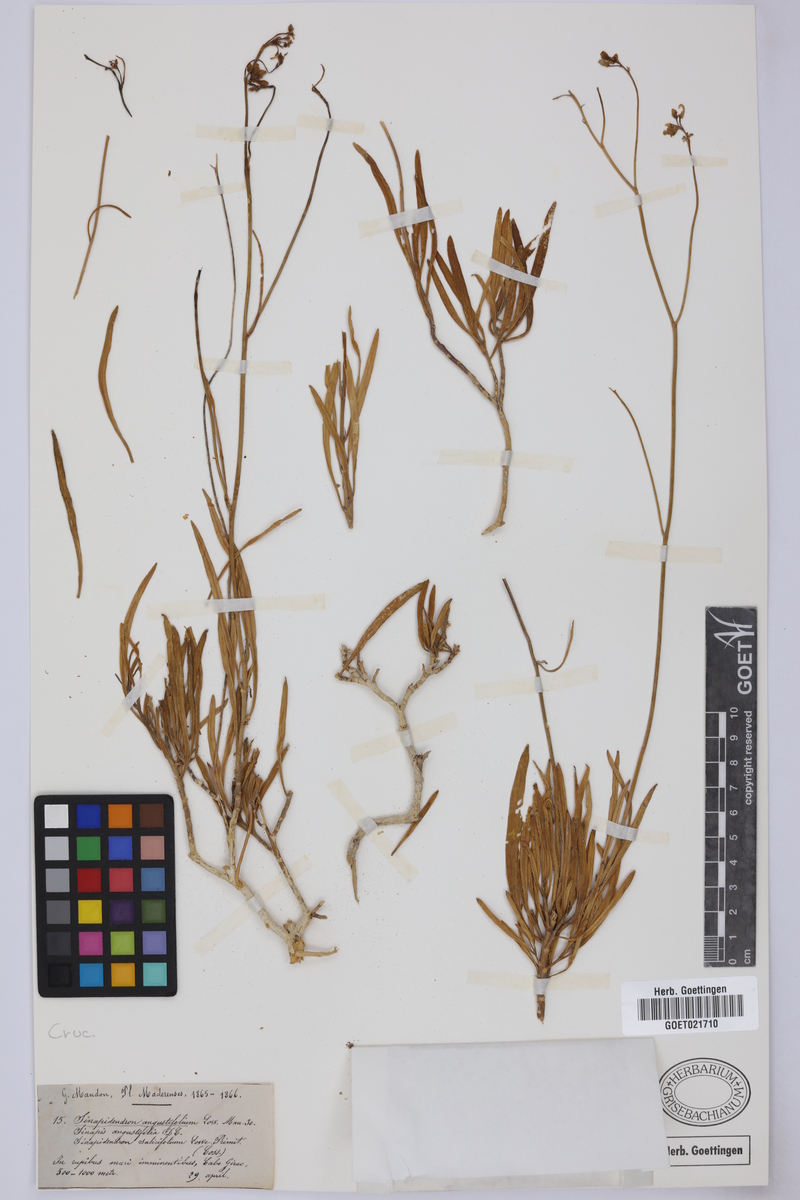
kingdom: Plantae
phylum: Tracheophyta
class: Magnoliopsida
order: Brassicales
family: Brassicaceae
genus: Sinapidendron
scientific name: Sinapidendron angustifolium
